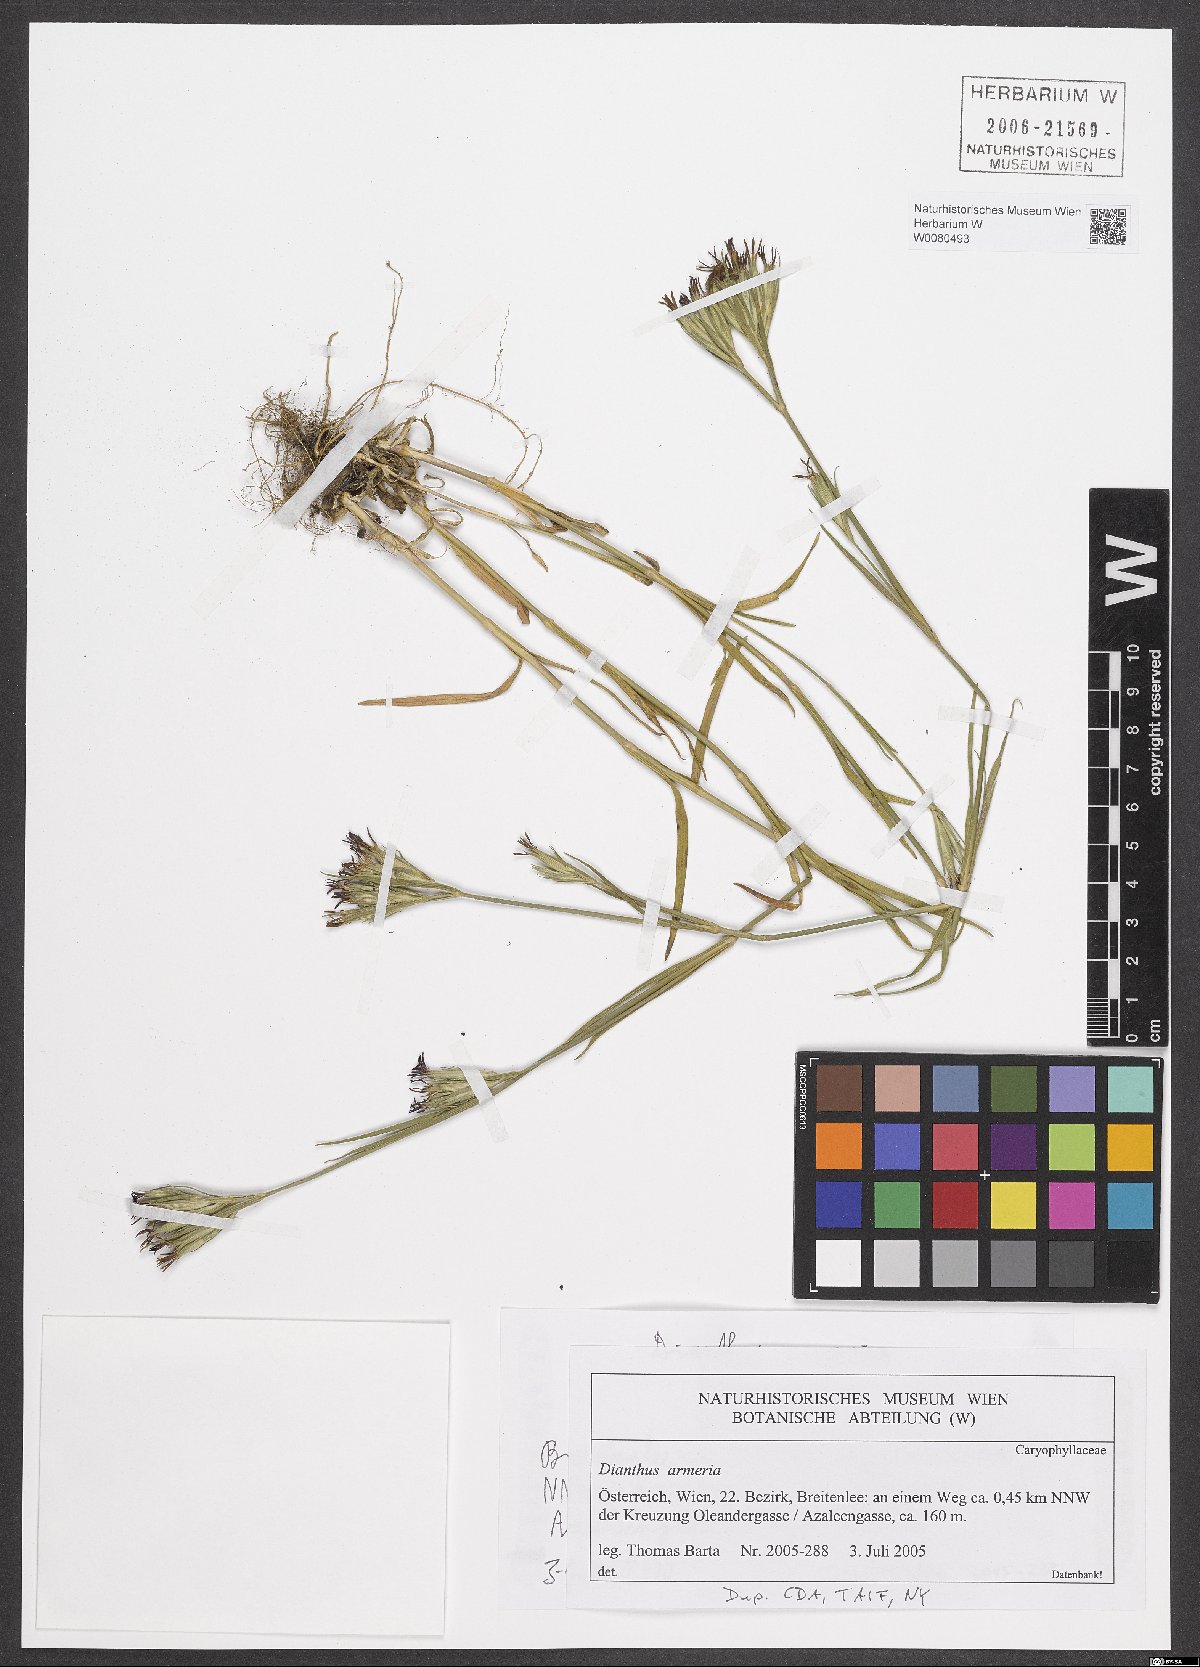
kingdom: Plantae
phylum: Tracheophyta
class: Magnoliopsida
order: Caryophyllales
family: Caryophyllaceae
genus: Dianthus
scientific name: Dianthus armeria
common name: Deptford pink
